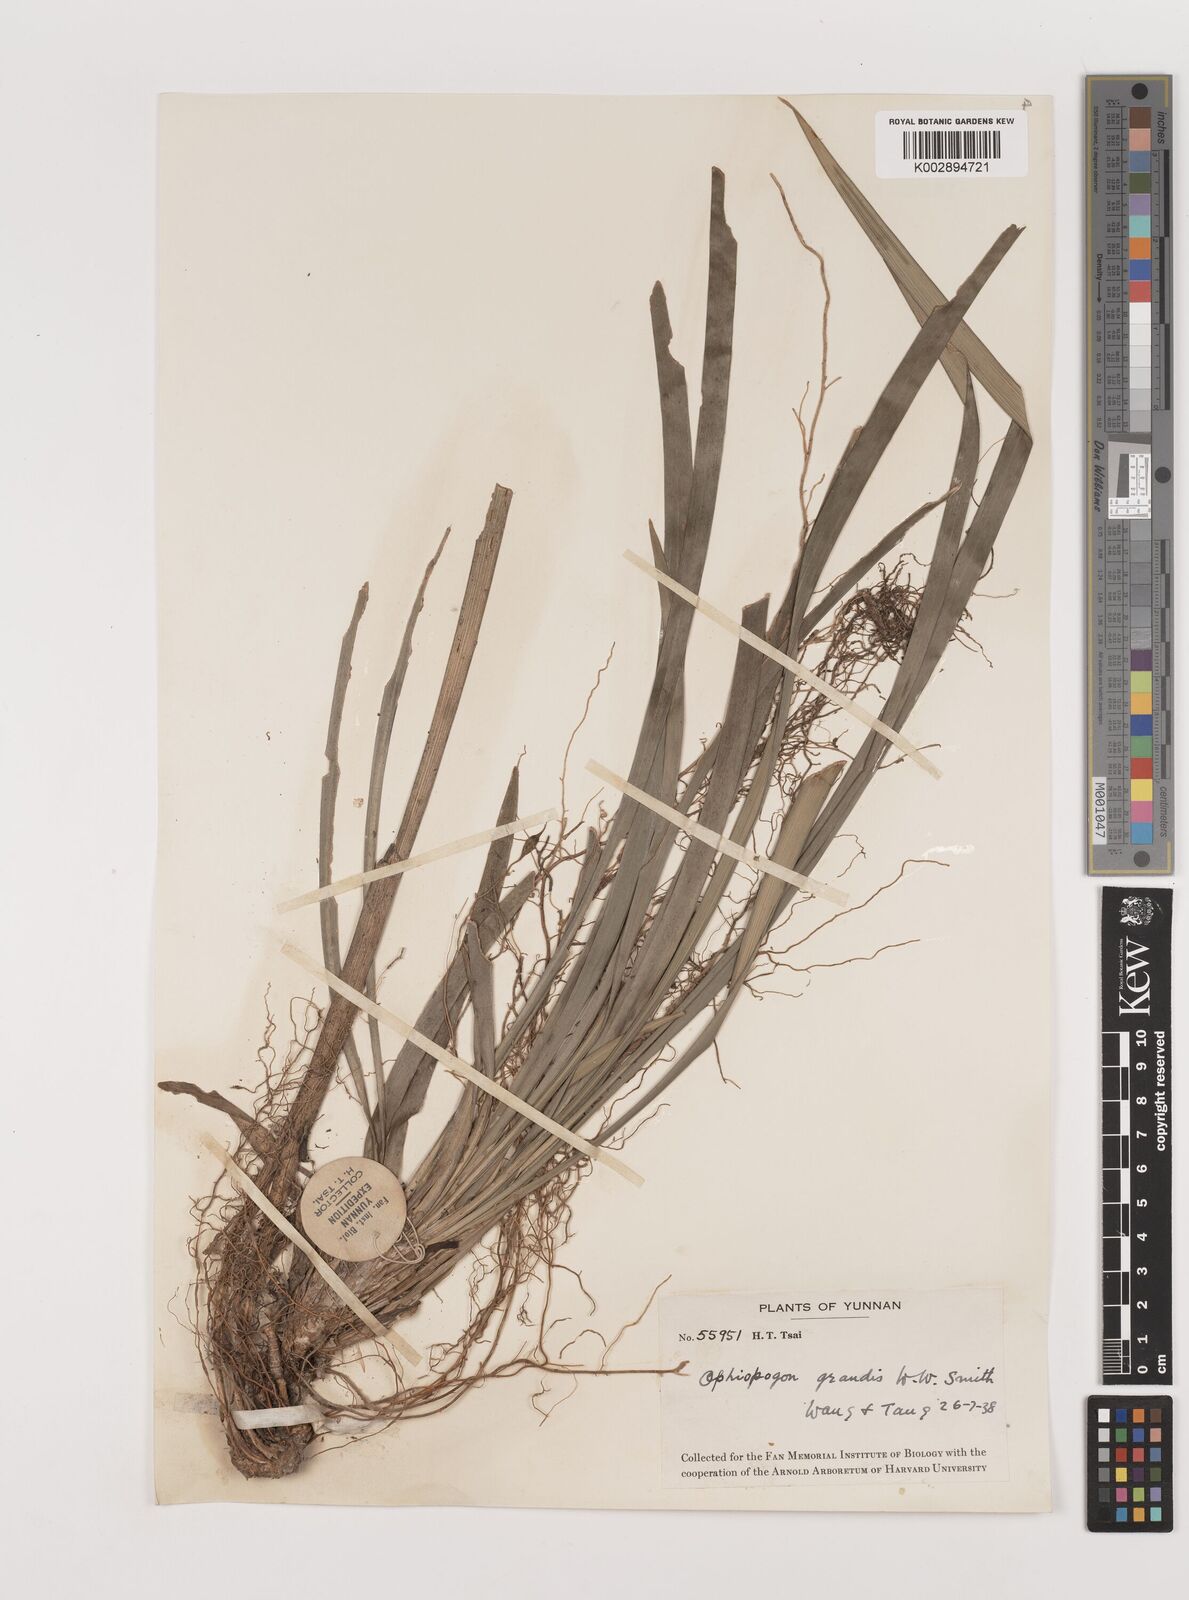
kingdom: Plantae
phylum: Tracheophyta
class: Liliopsida
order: Asparagales
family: Asparagaceae
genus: Ophiopogon
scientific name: Ophiopogon grandis
